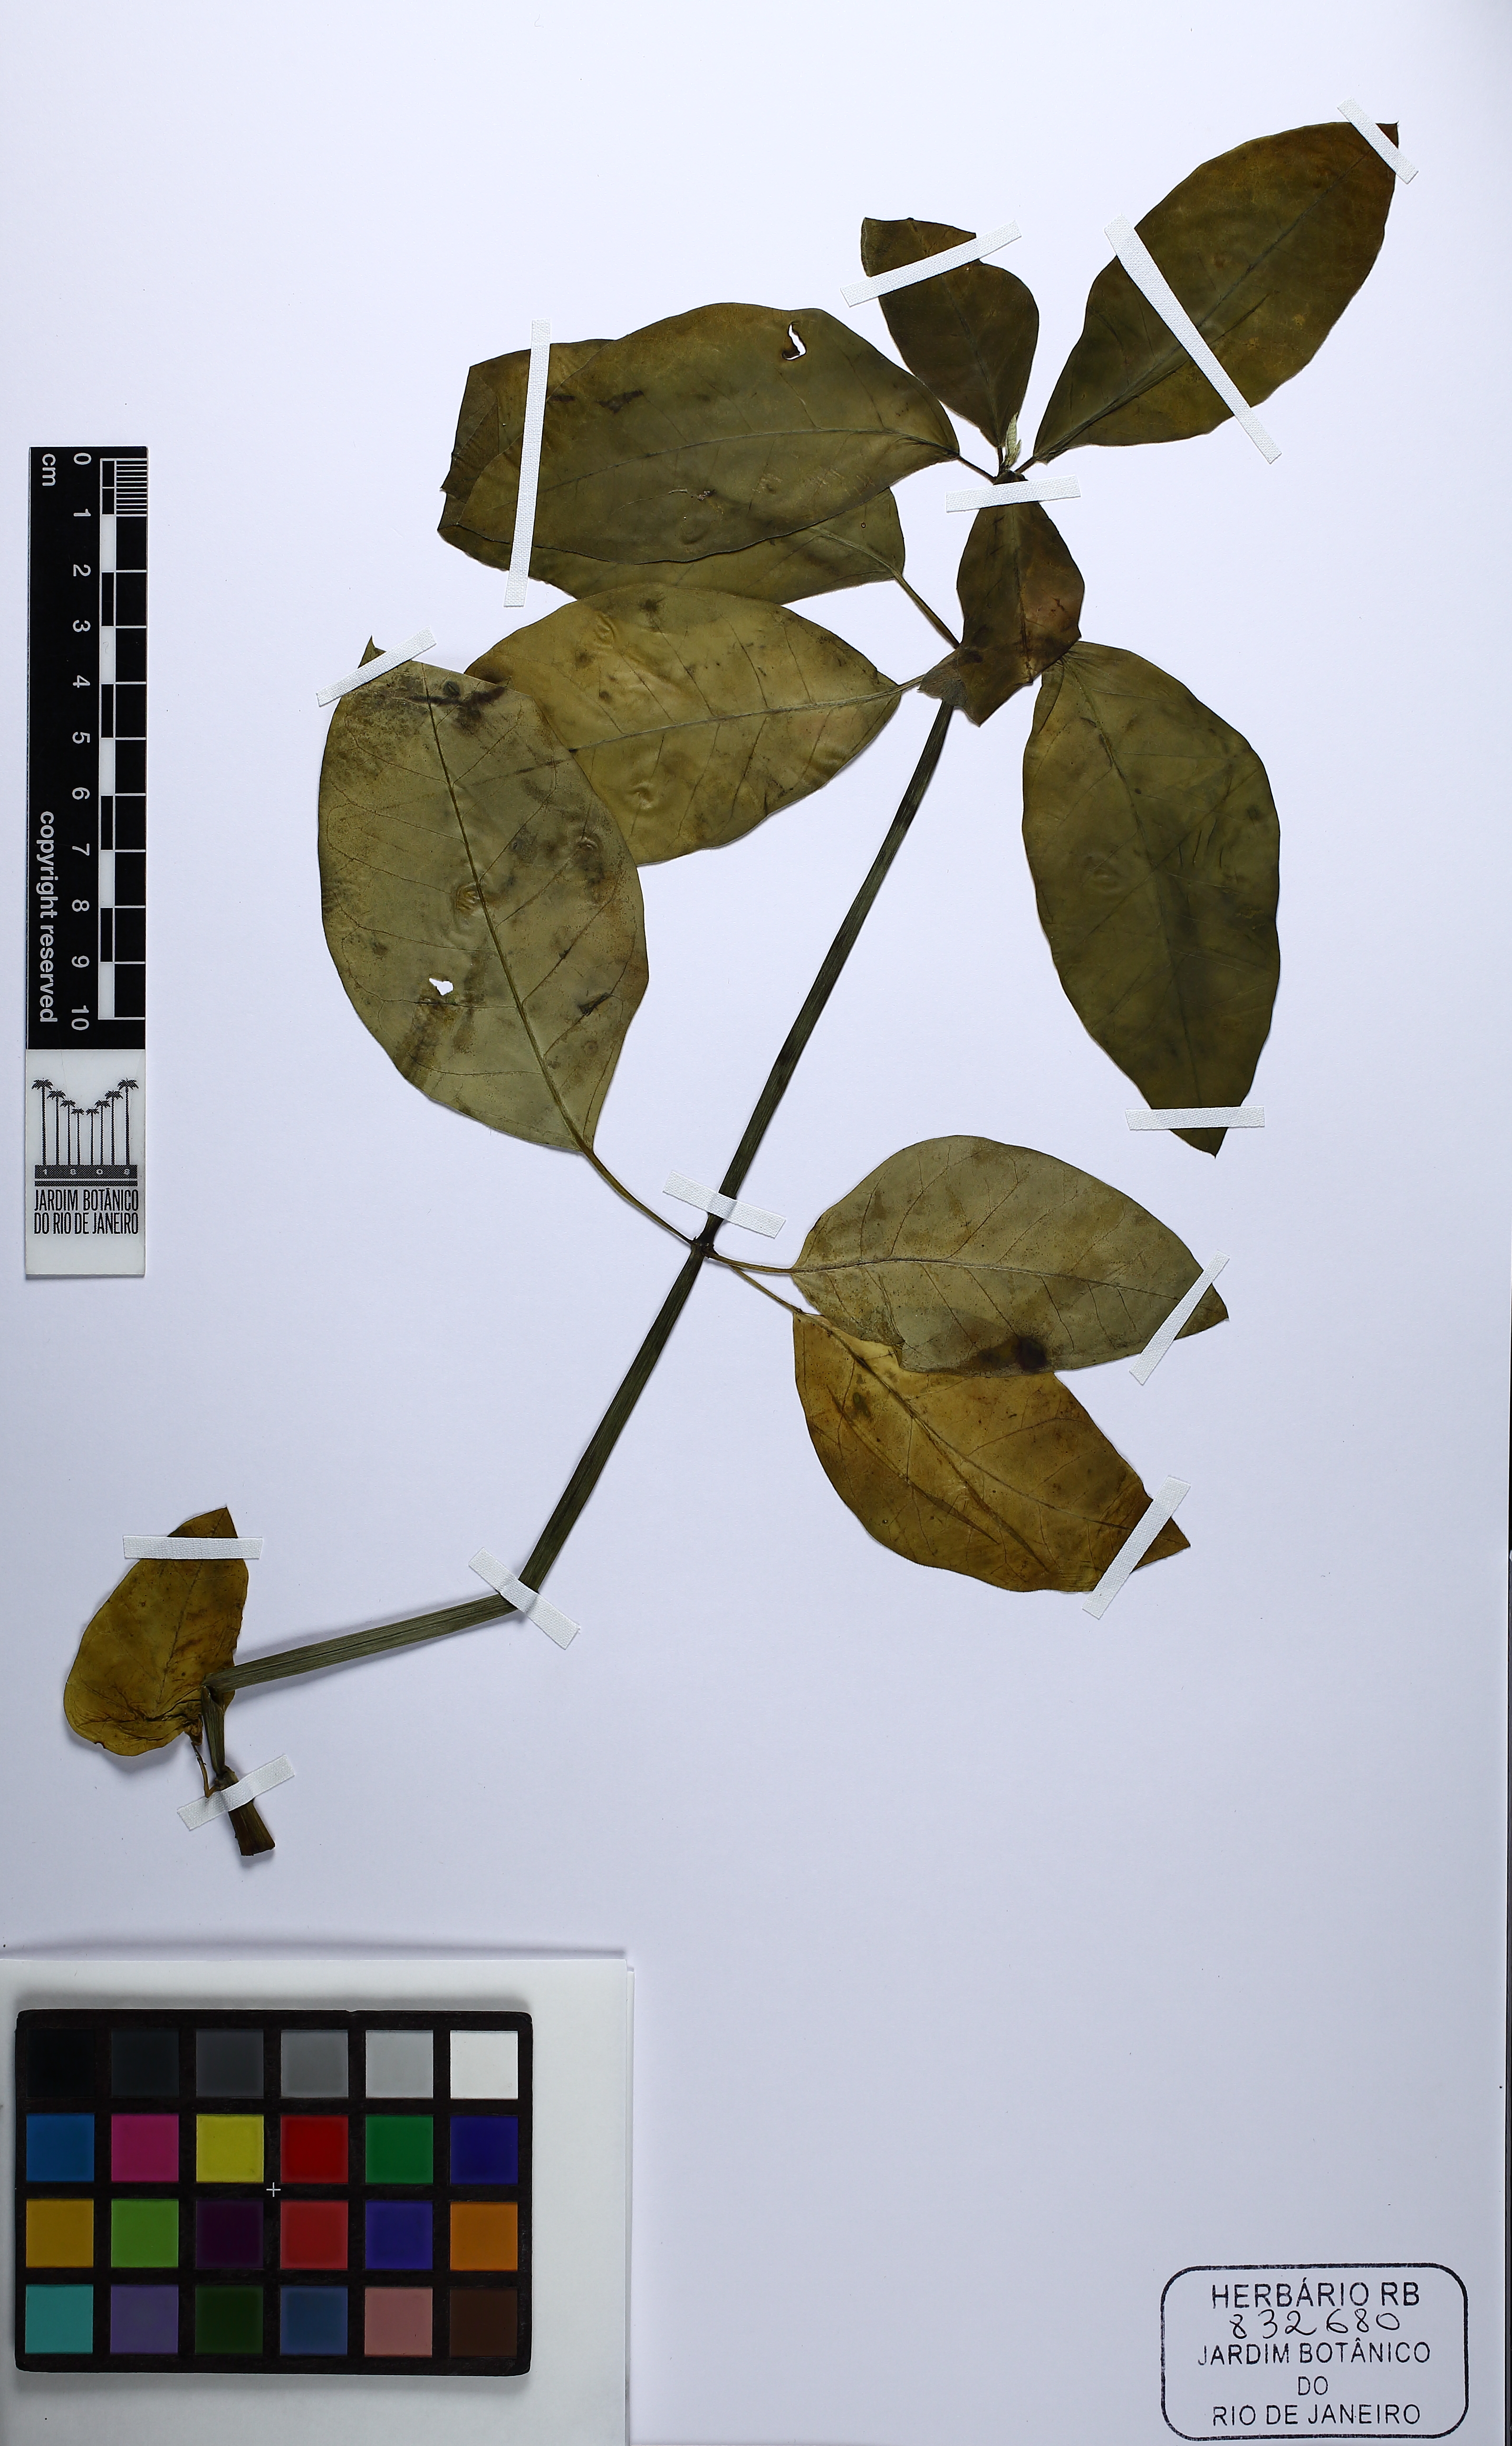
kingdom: Plantae
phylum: Tracheophyta
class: Magnoliopsida
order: Malpighiales
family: Euphorbiaceae
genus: Euphorbia
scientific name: Euphorbia insulana
